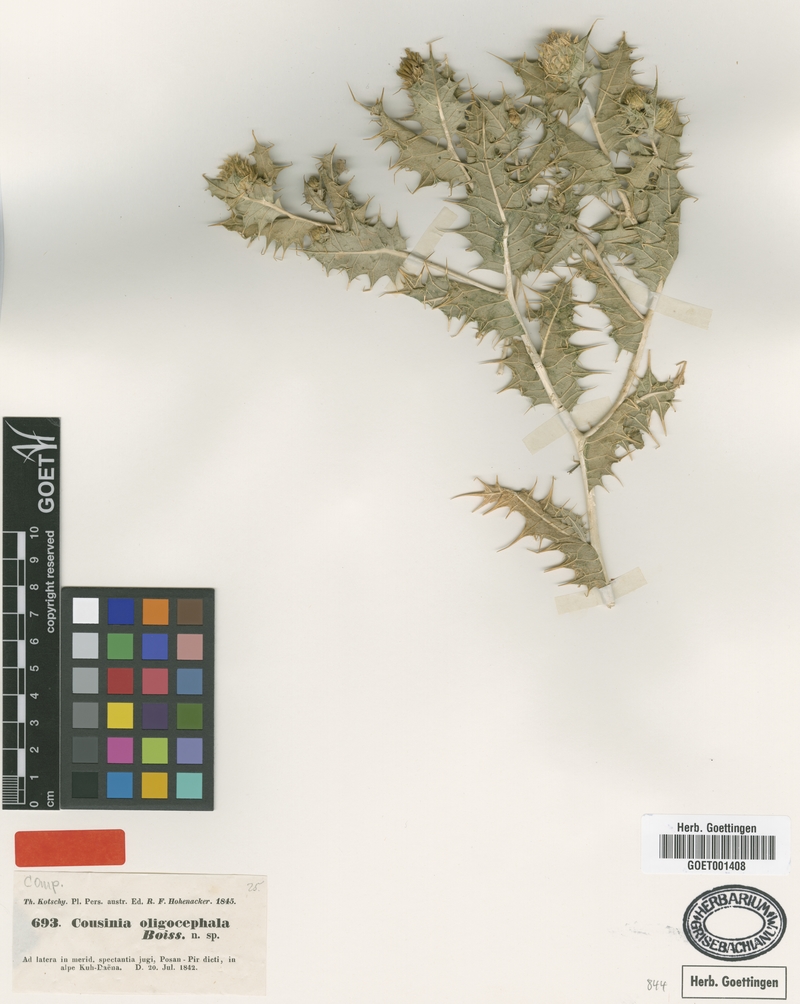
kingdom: Plantae
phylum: Tracheophyta
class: Magnoliopsida
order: Asterales
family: Asteraceae
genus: Cousinia
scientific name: Cousinia oligocephala
